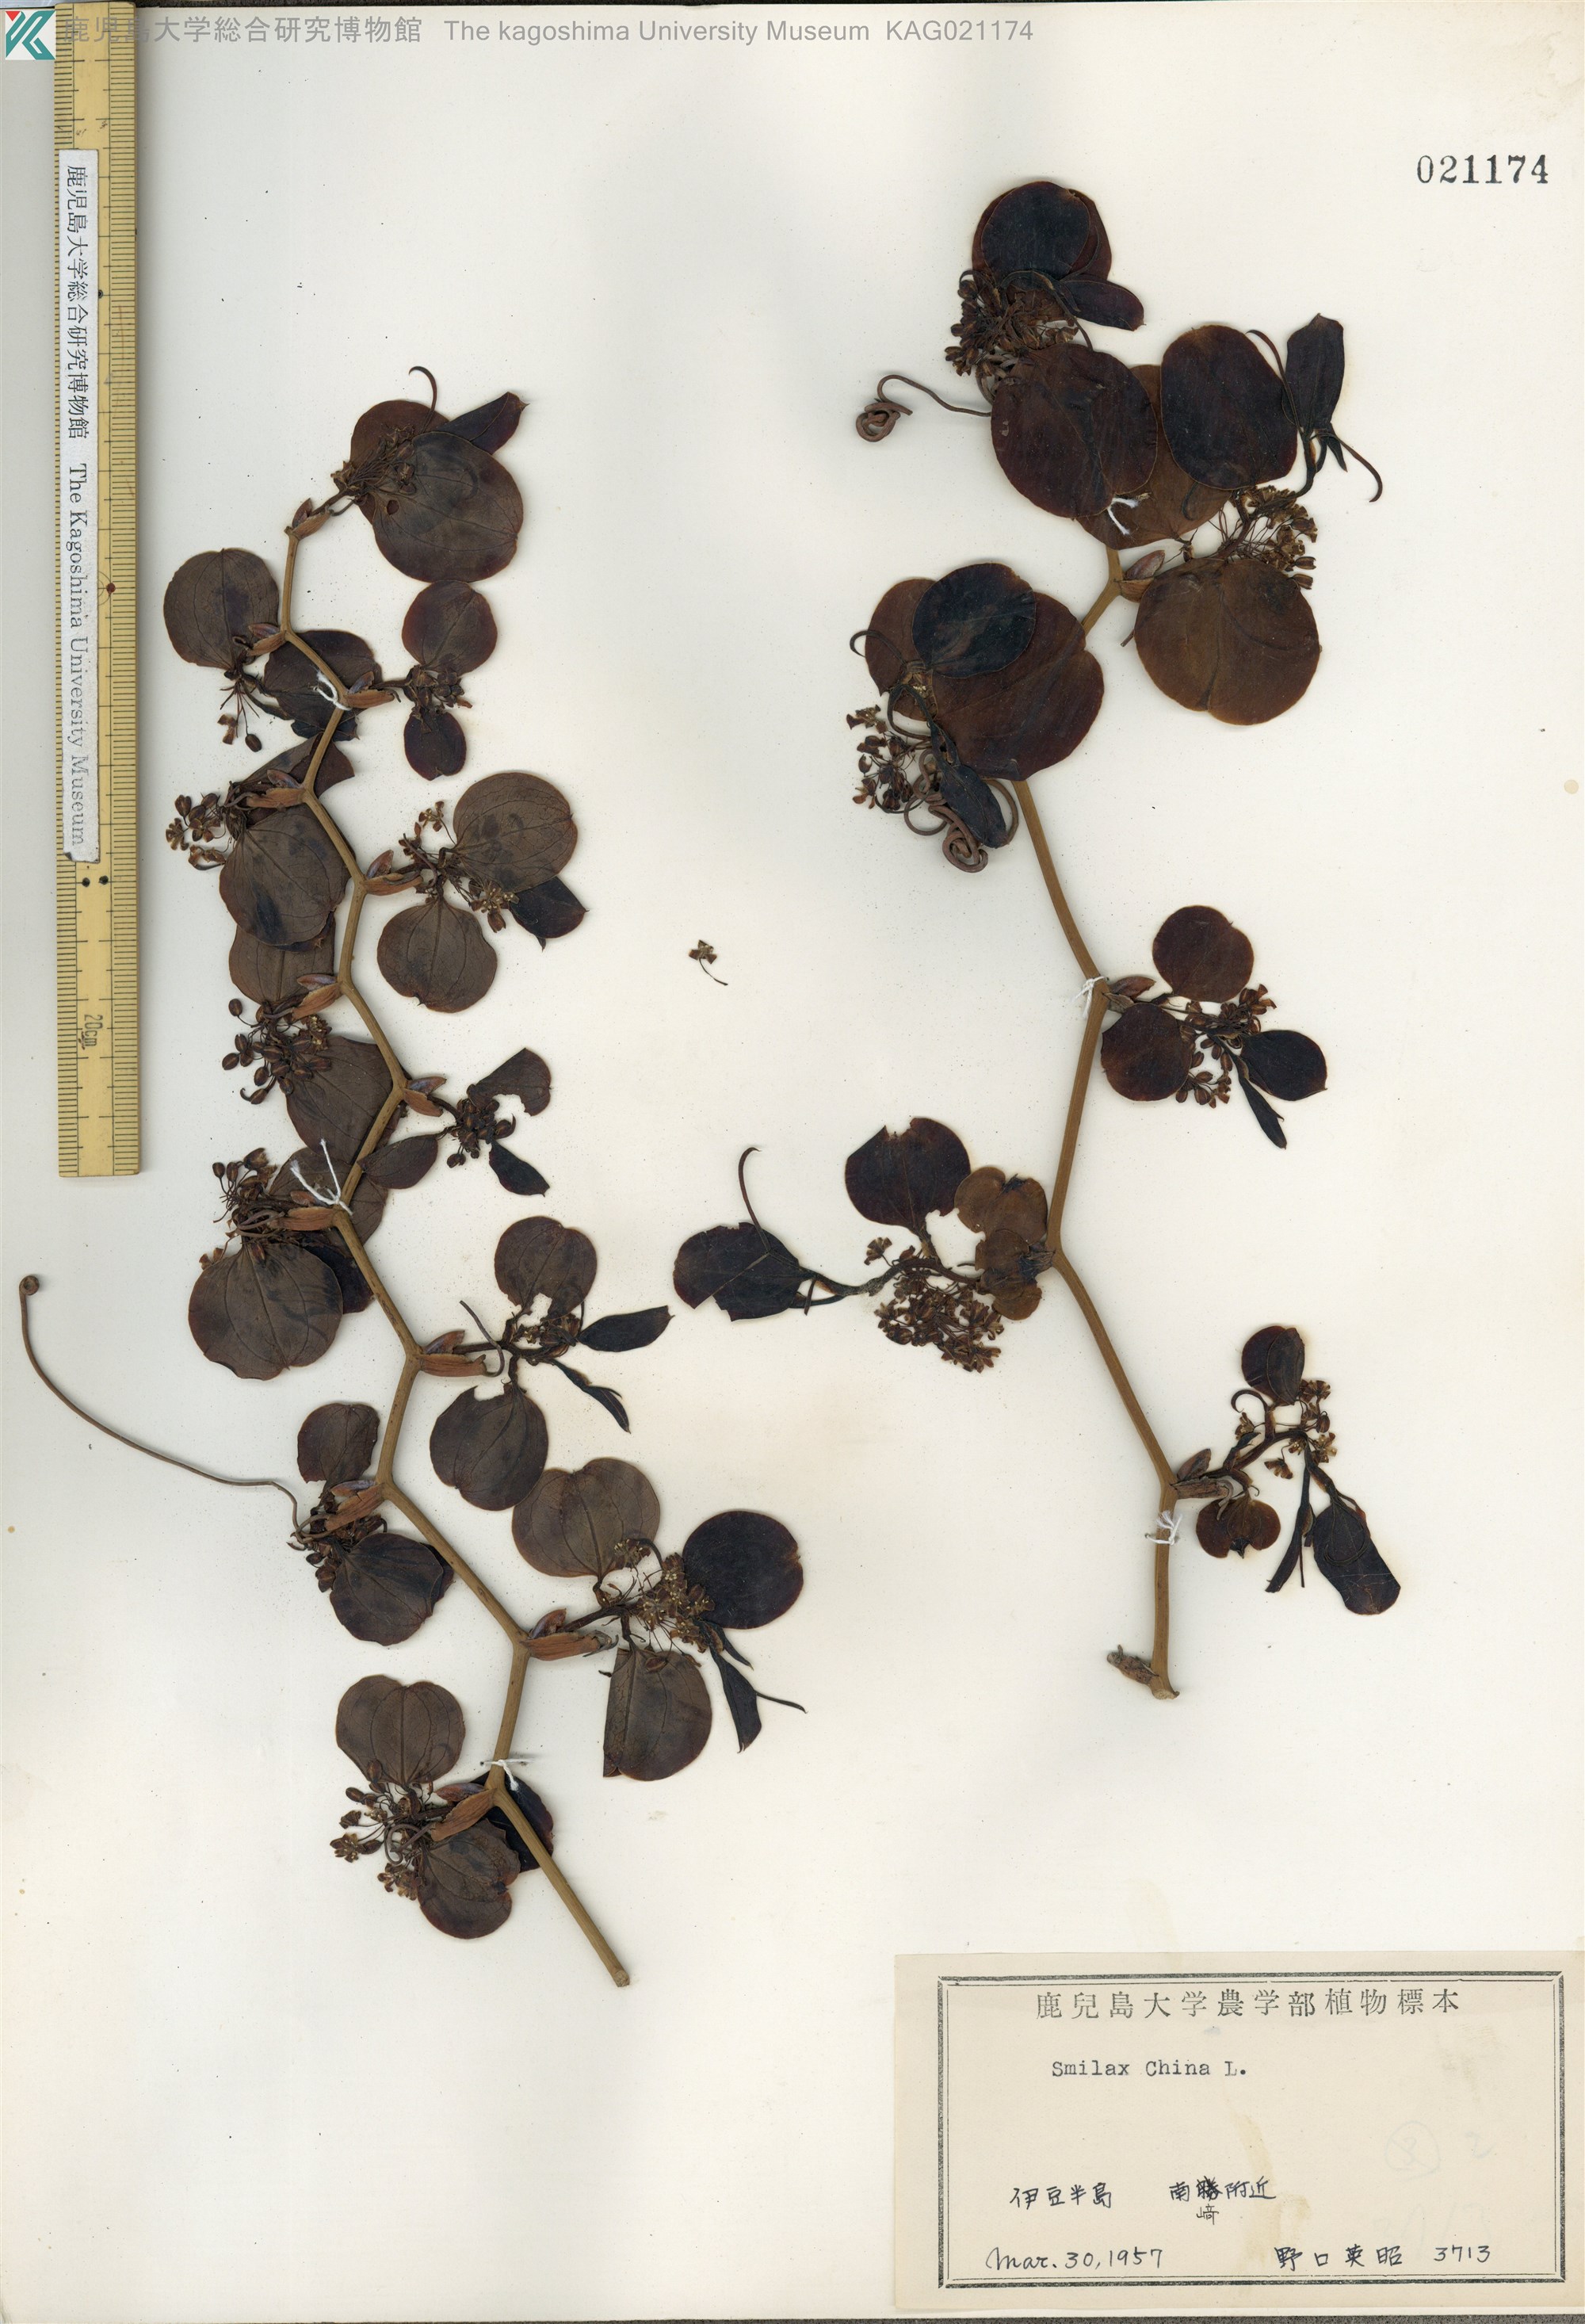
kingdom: Plantae
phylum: Tracheophyta
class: Liliopsida
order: Liliales
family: Smilacaceae
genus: Smilax
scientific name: Smilax china
